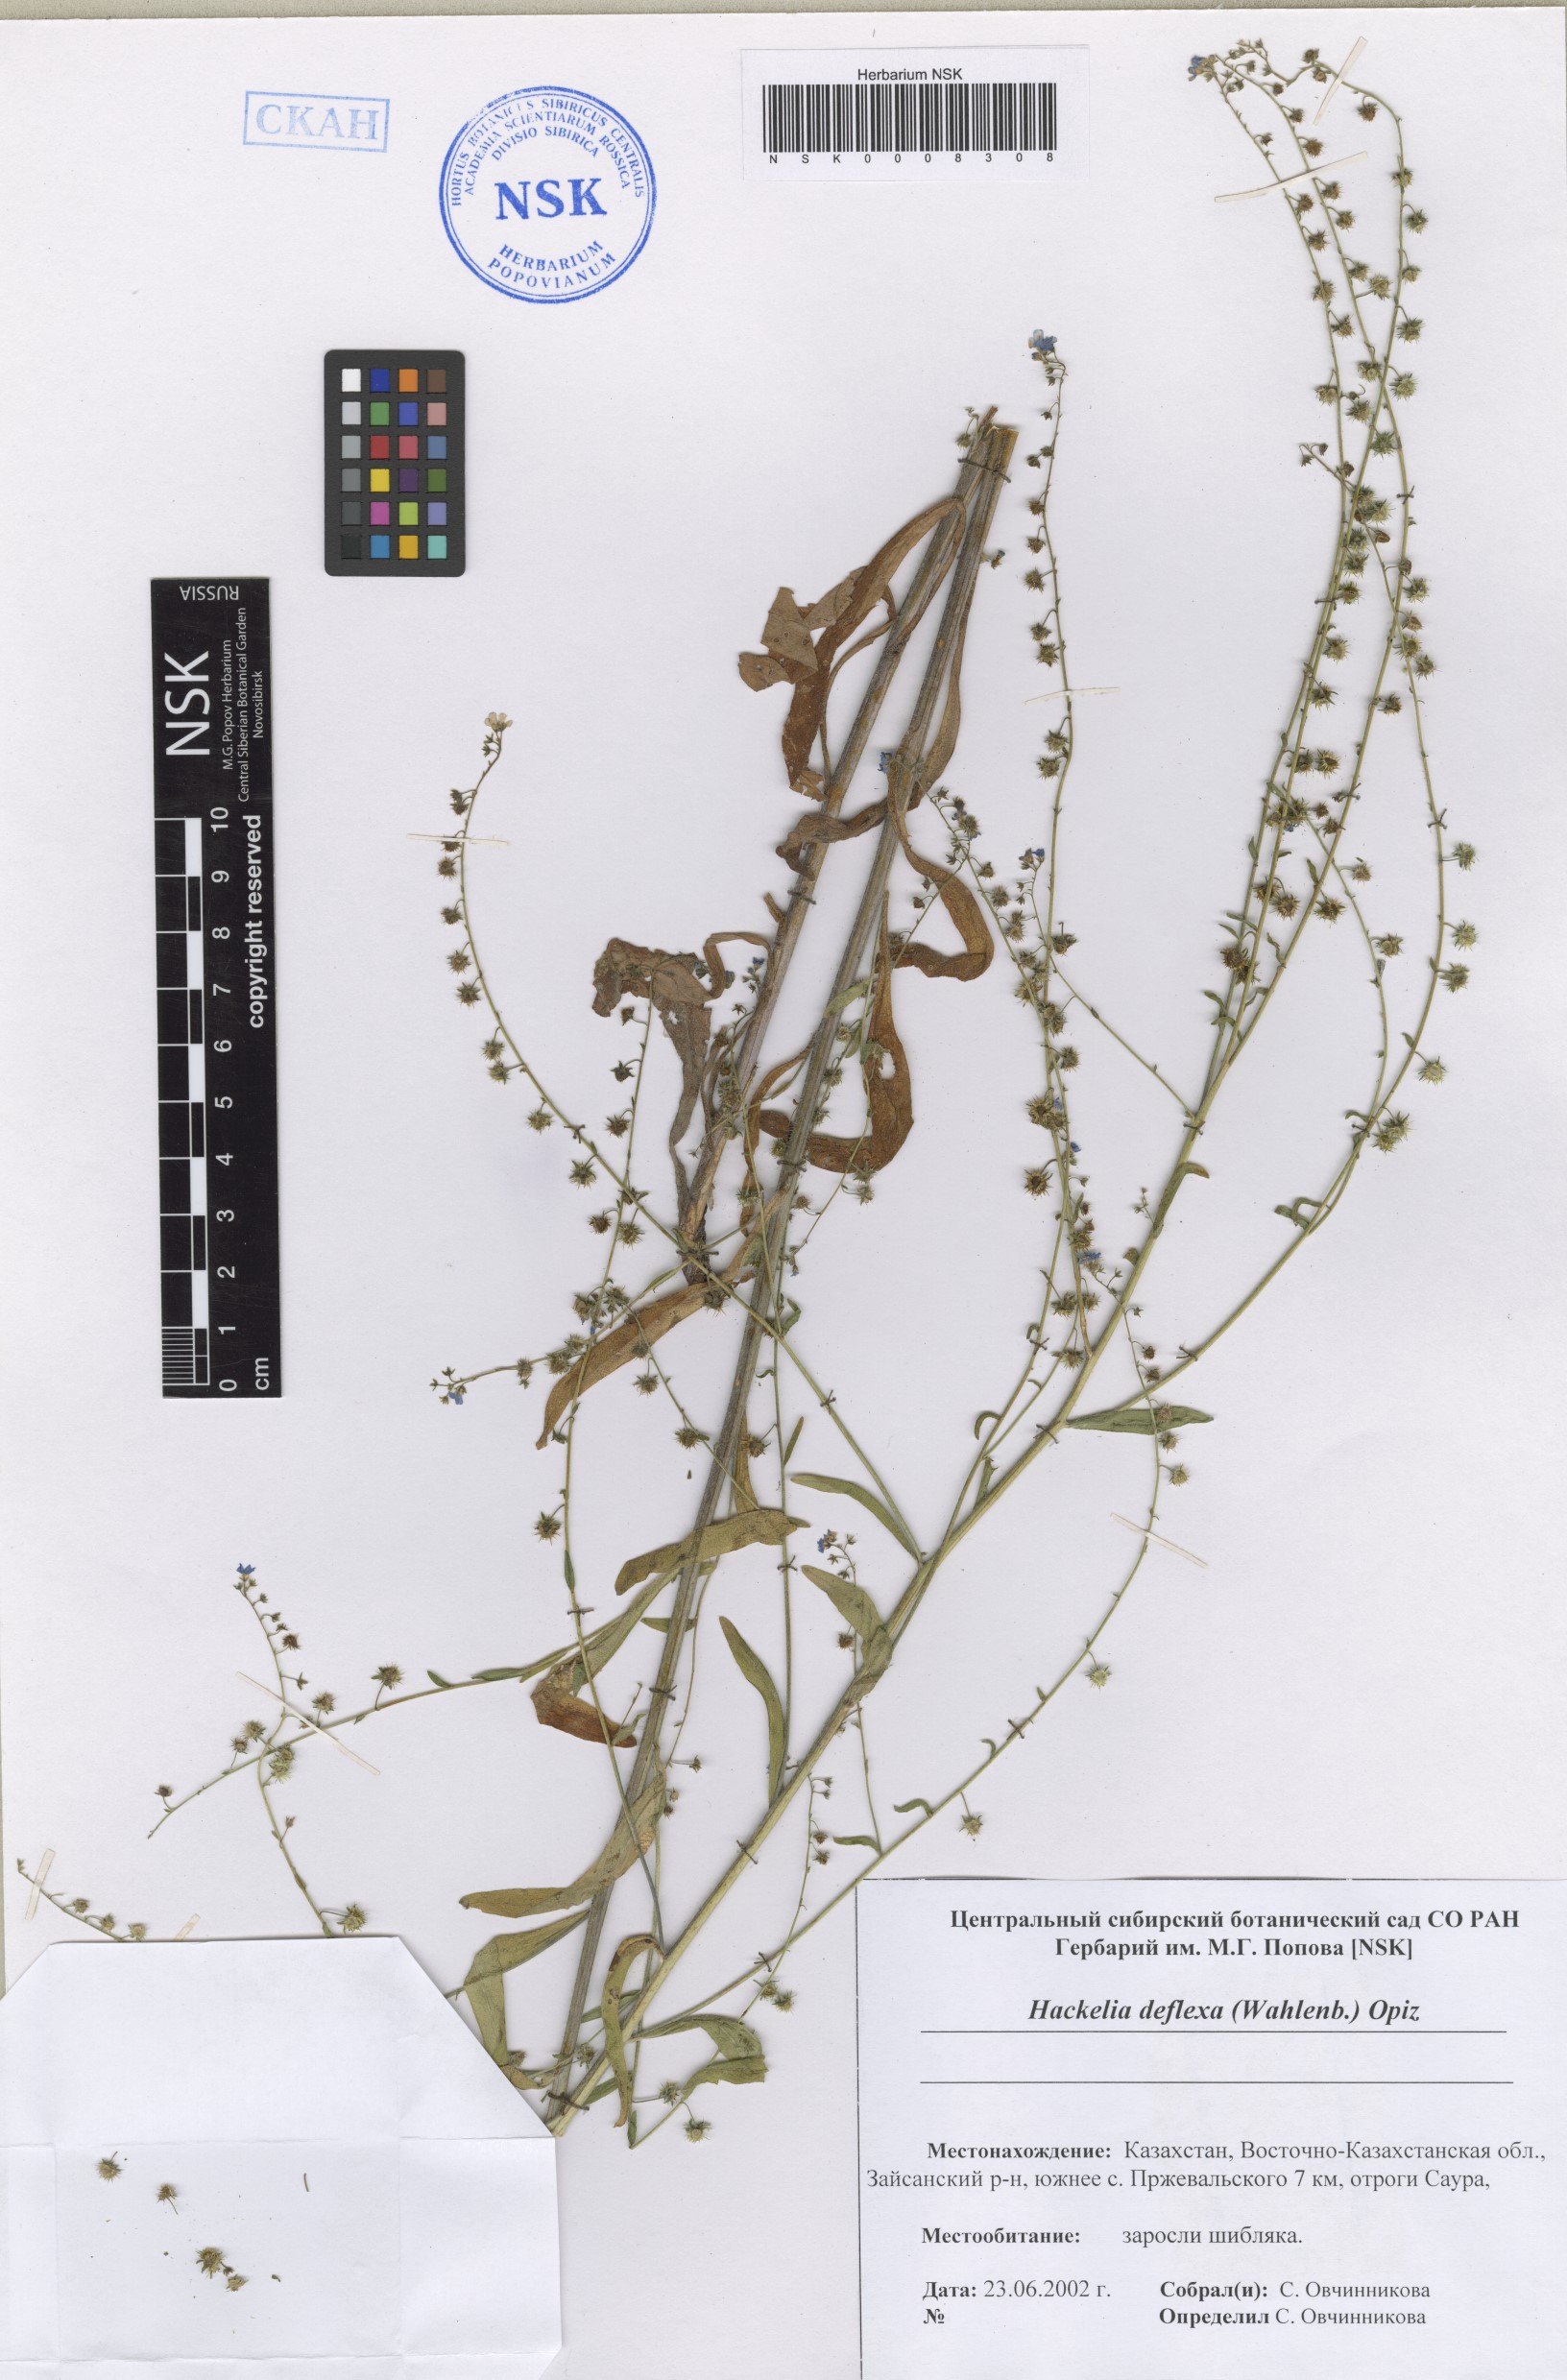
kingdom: Plantae
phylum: Tracheophyta
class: Magnoliopsida
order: Boraginales
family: Boraginaceae
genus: Hackelia
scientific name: Hackelia deflexa
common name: Nodding stickseed
